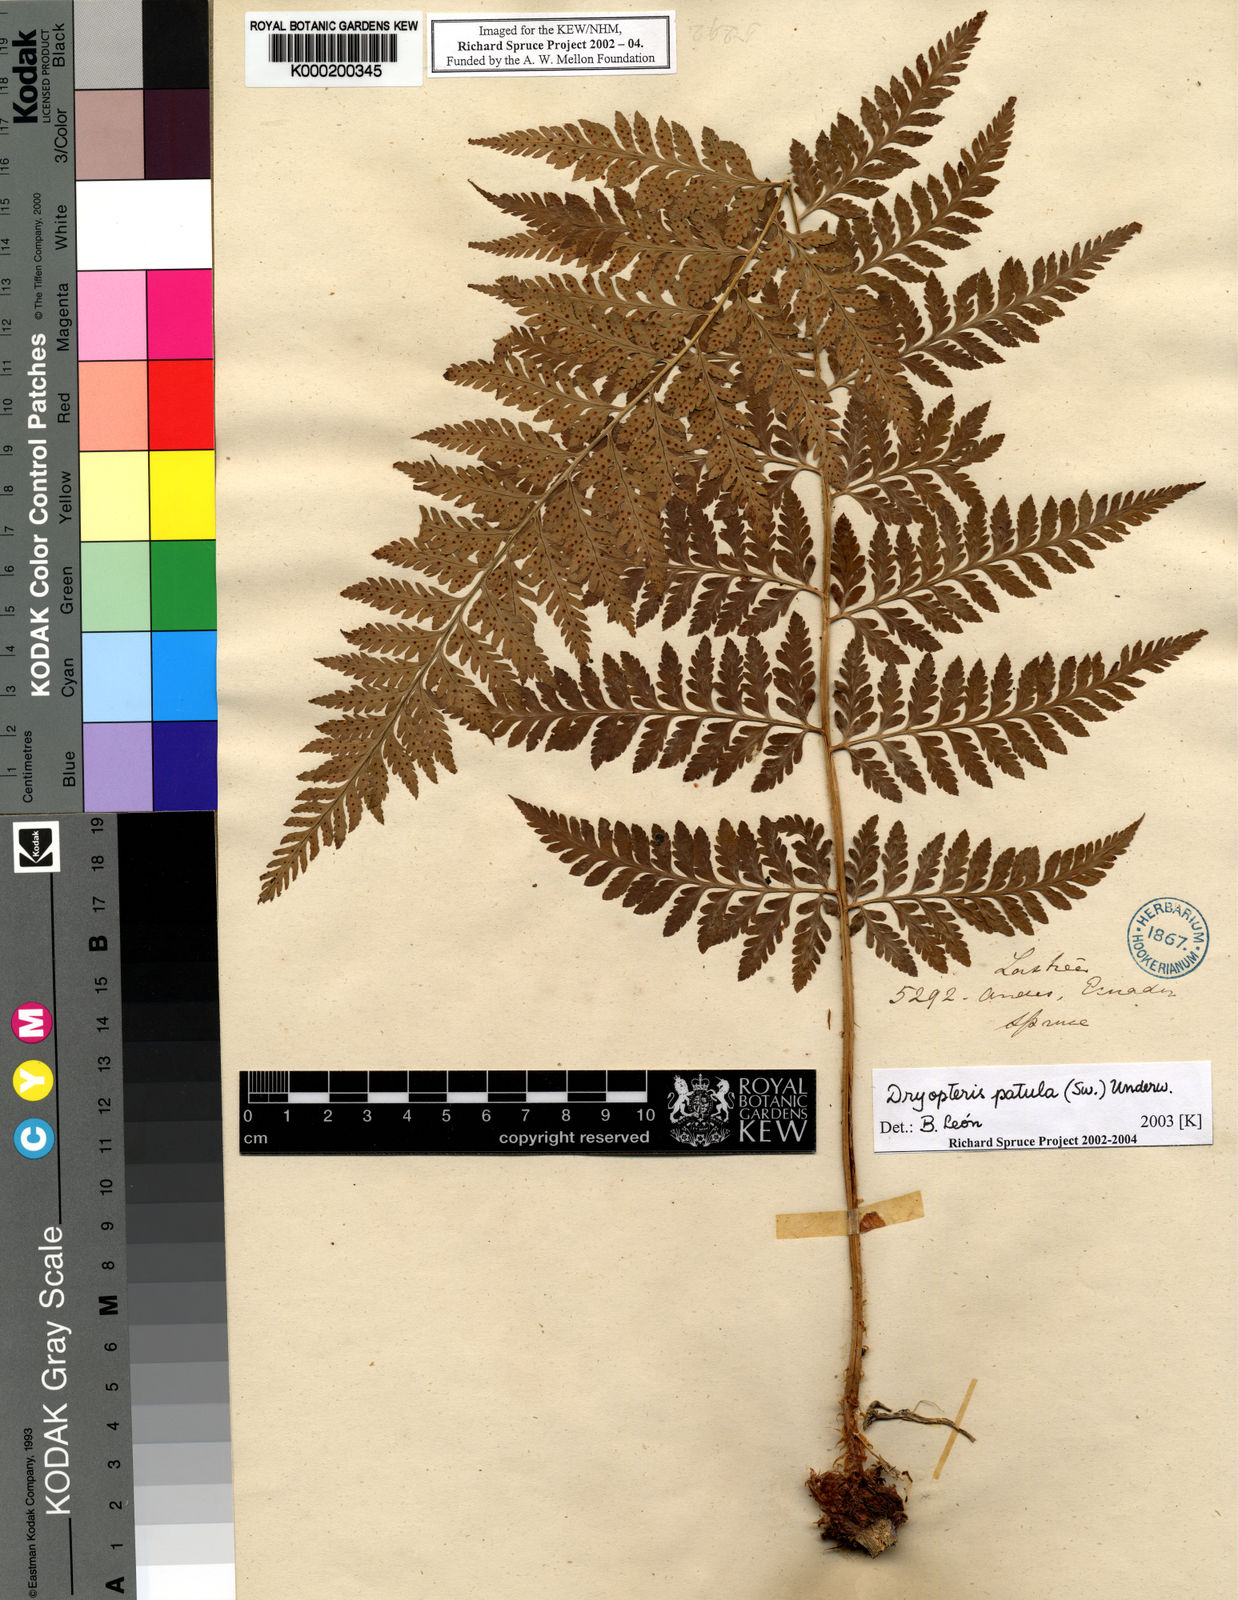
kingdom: Plantae
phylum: Tracheophyta
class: Polypodiopsida
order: Polypodiales
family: Dryopteridaceae
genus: Dryopteris
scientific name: Dryopteris
